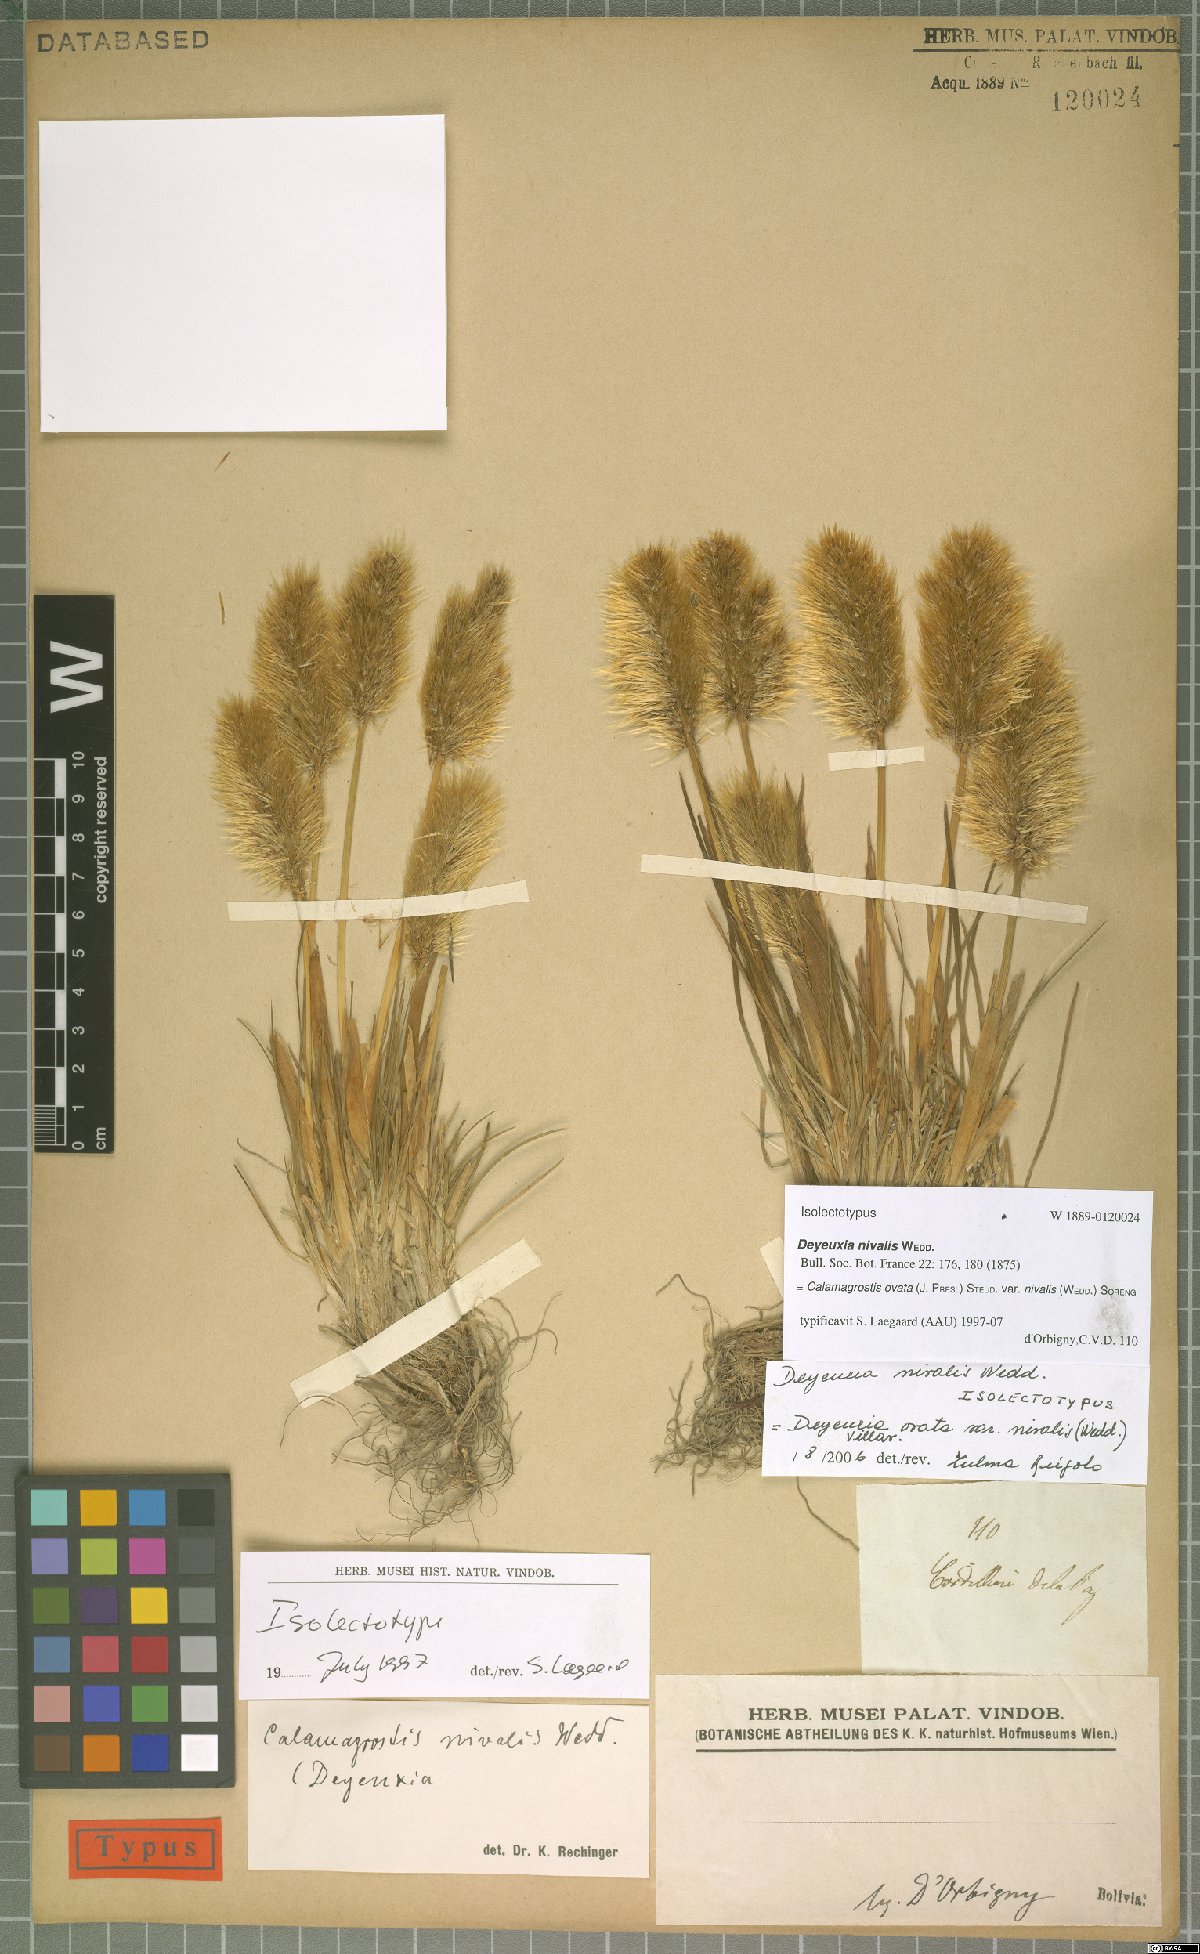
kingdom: Plantae
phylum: Tracheophyta
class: Liliopsida
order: Poales
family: Poaceae
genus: Deschampsia
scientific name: Deschampsia ovata
